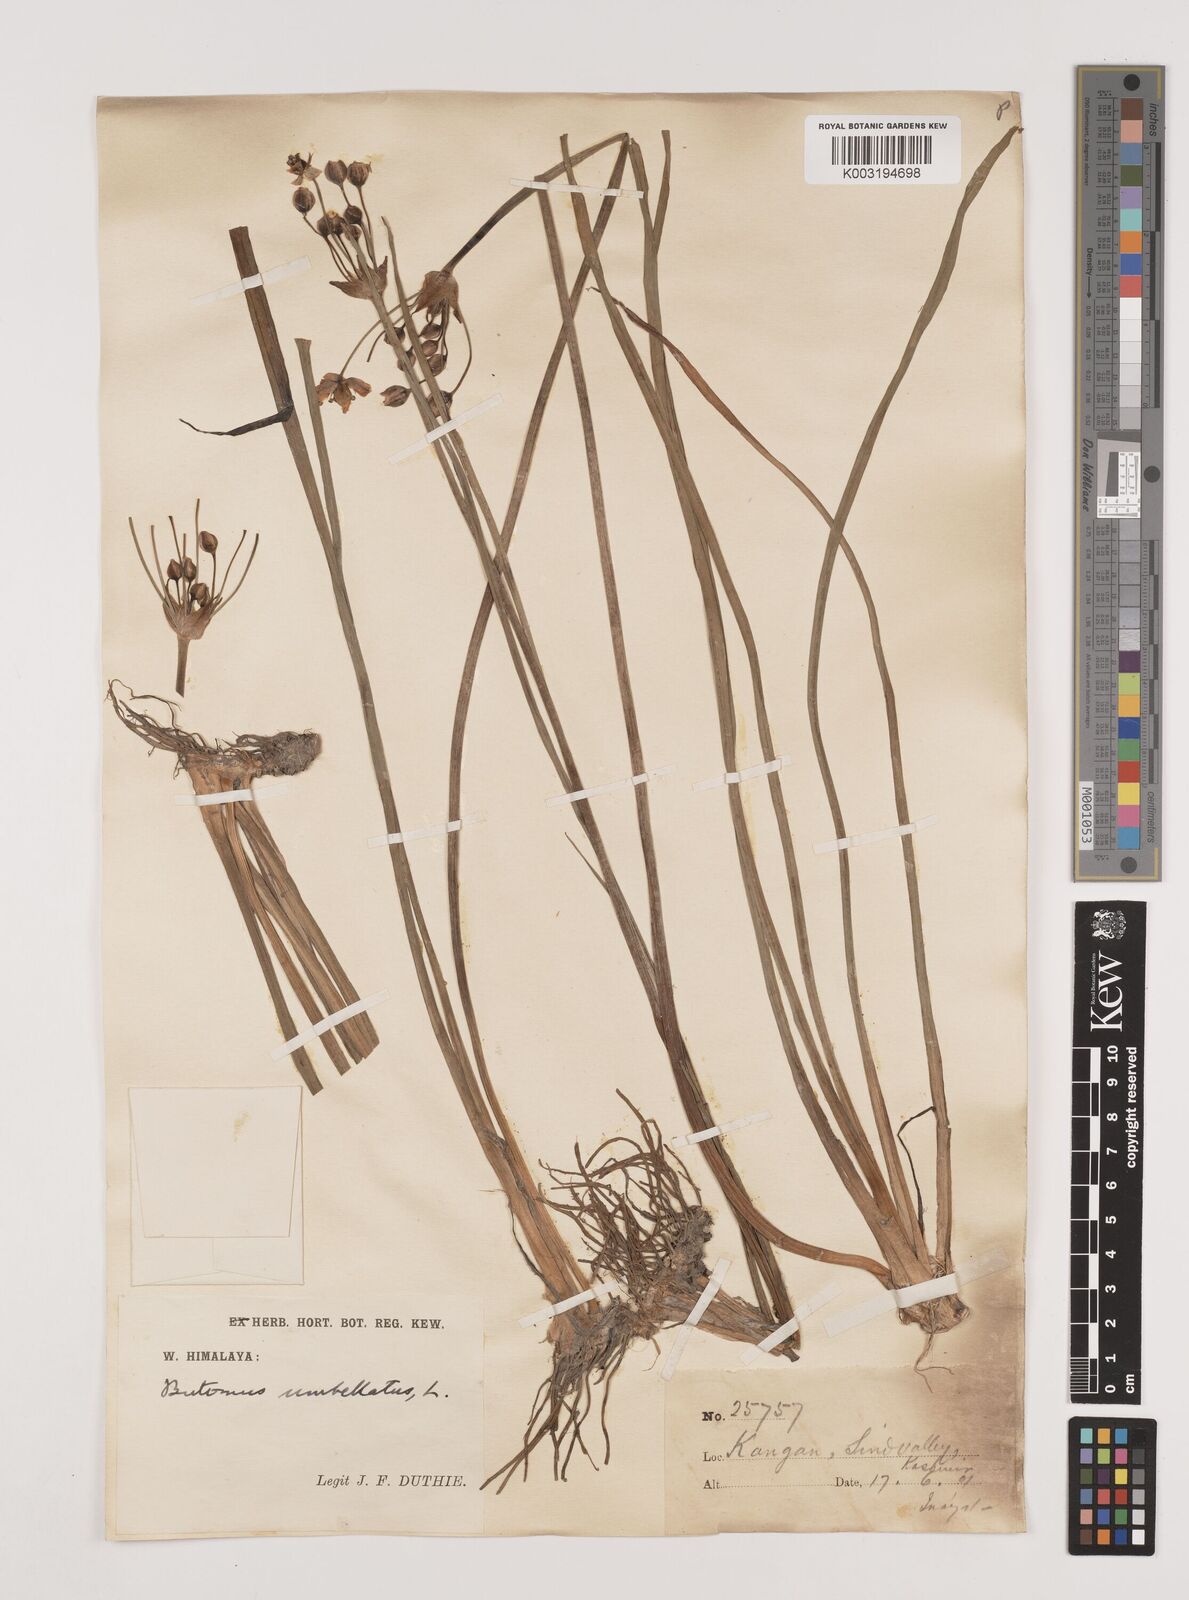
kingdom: Plantae
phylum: Tracheophyta
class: Liliopsida
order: Alismatales
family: Butomaceae
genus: Butomus
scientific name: Butomus umbellatus
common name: Flowering-rush
